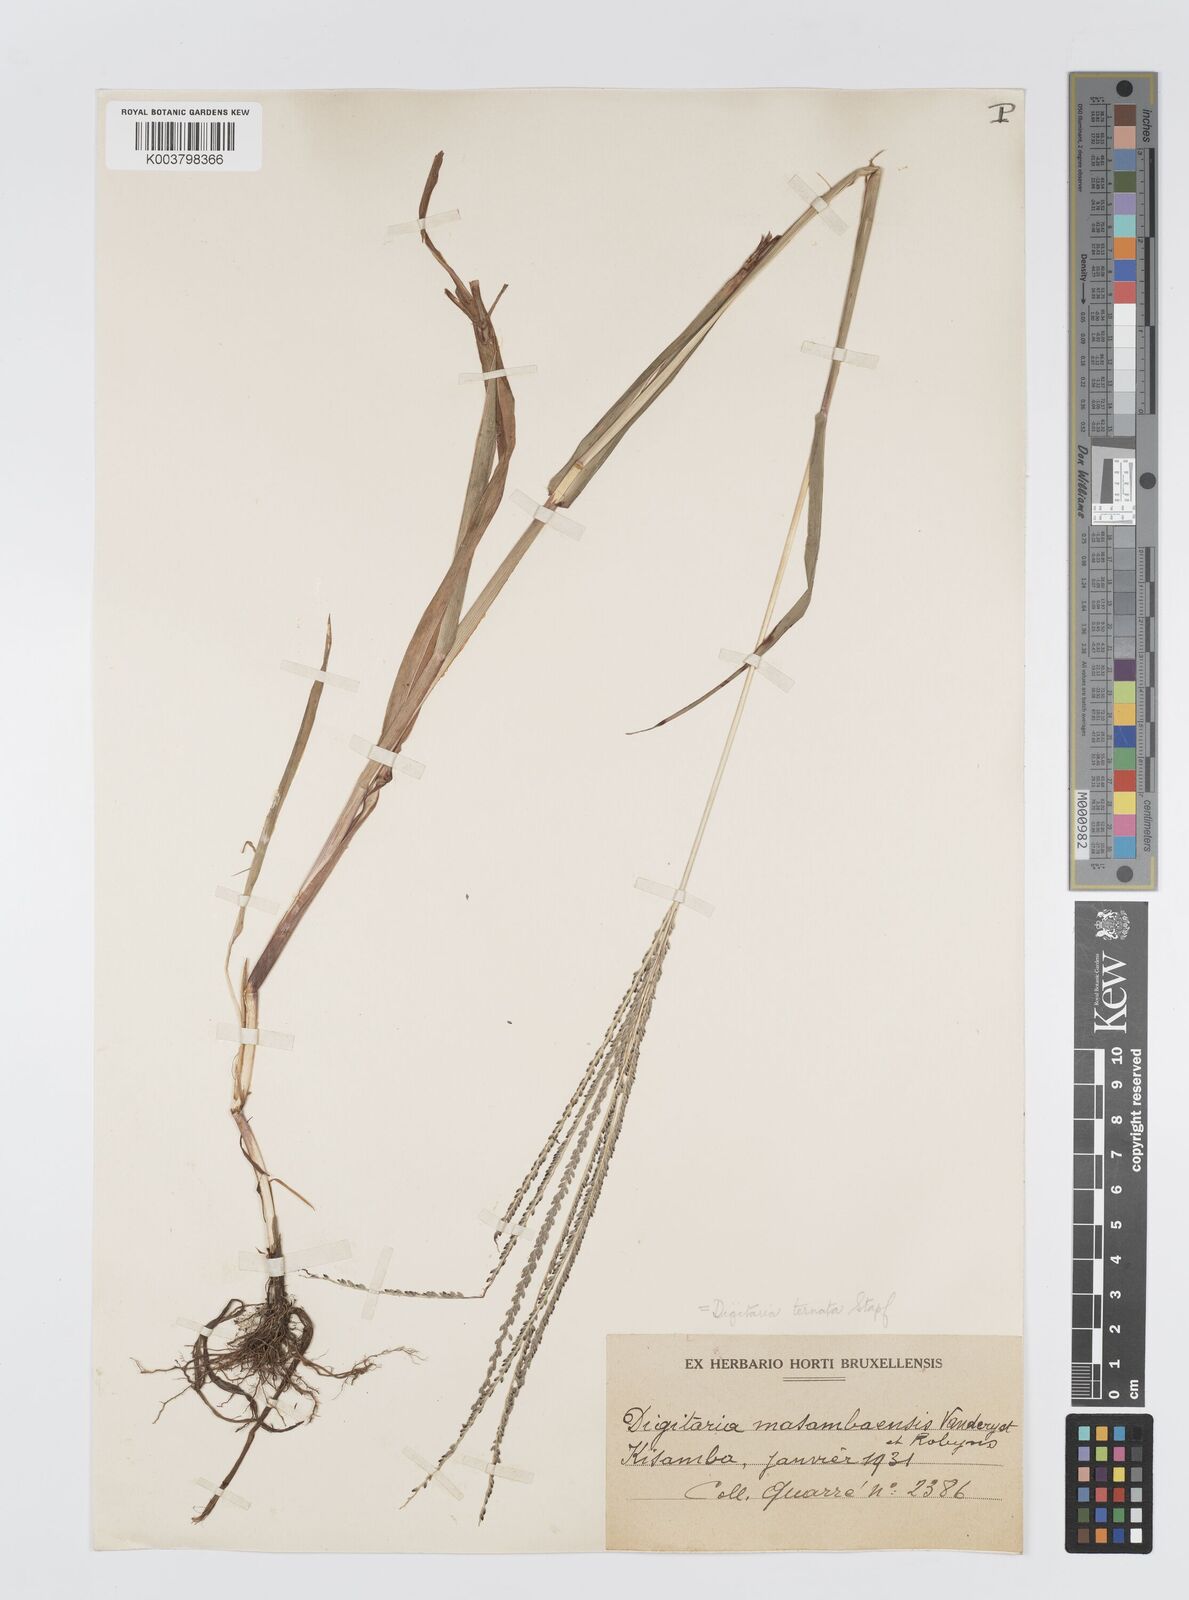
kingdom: Plantae
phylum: Tracheophyta
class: Liliopsida
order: Poales
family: Poaceae
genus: Digitaria
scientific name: Digitaria ternata
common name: Blackseed crabgrass
